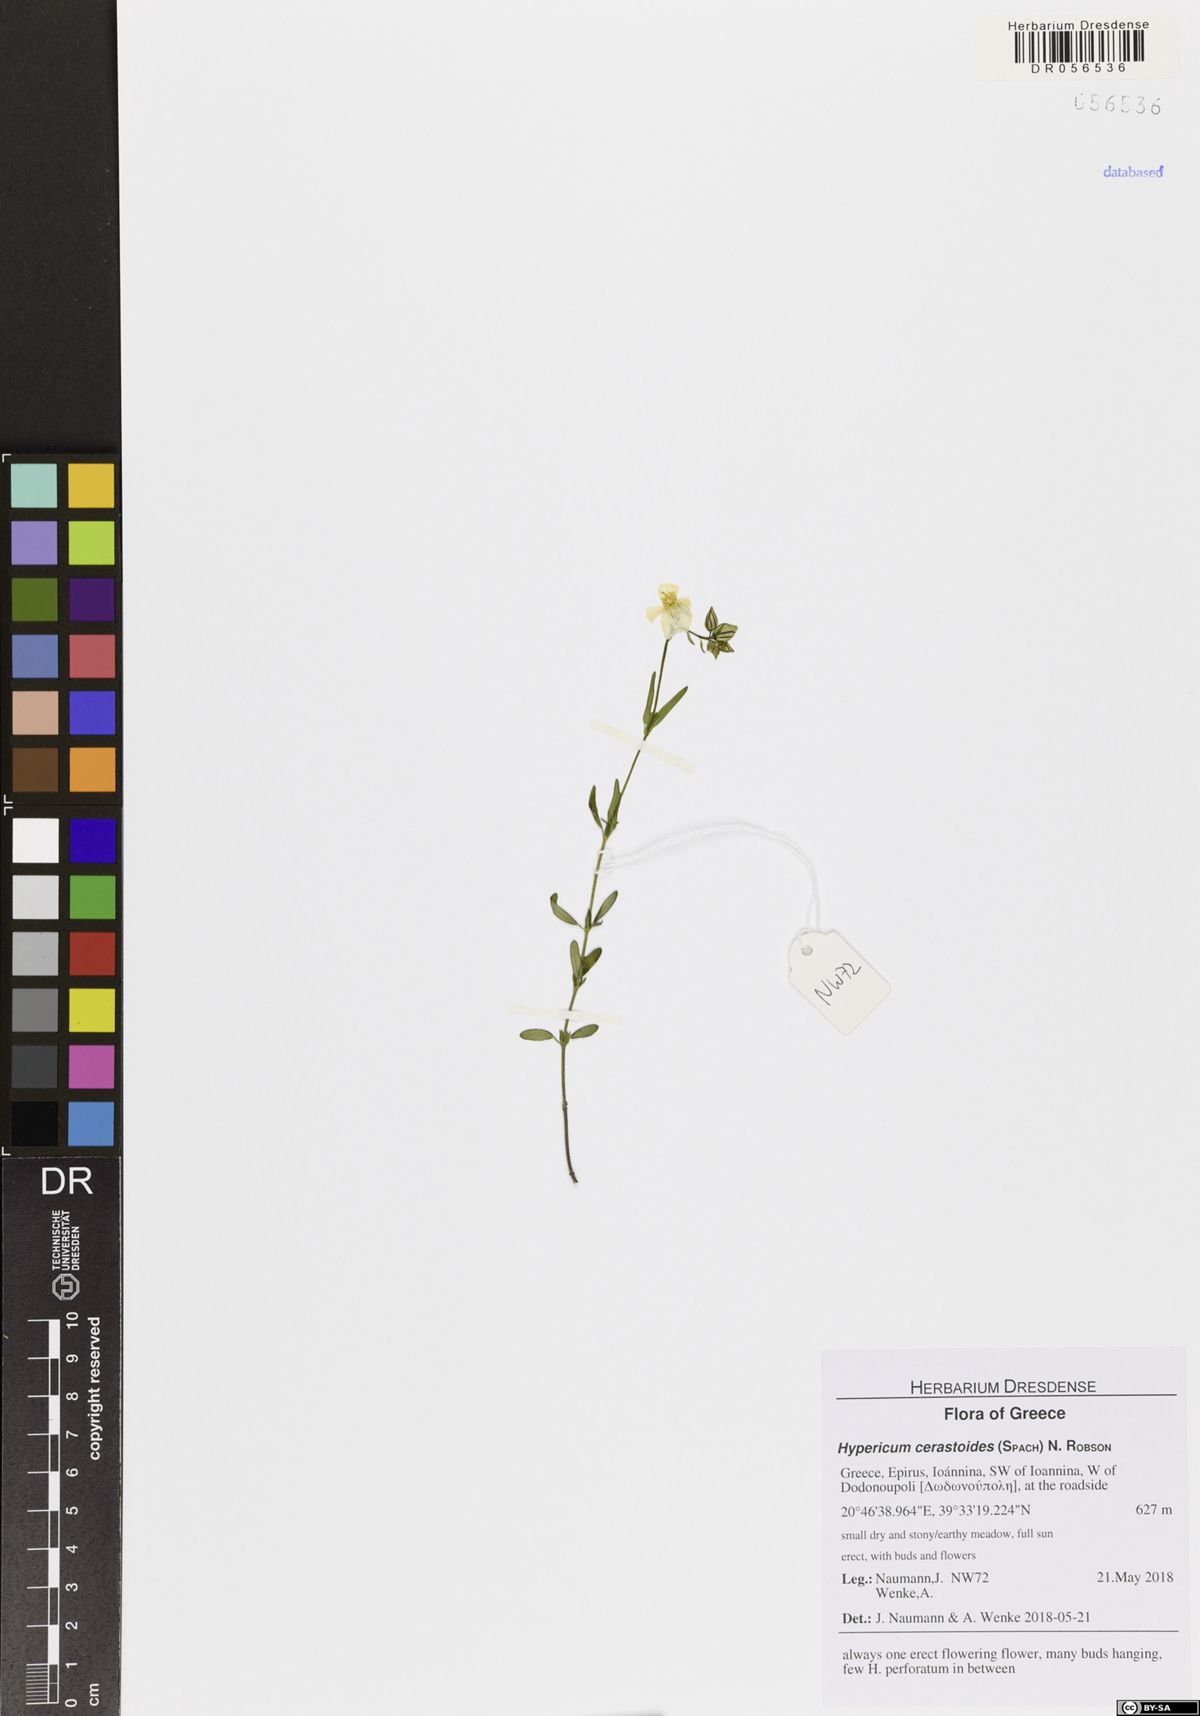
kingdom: Plantae
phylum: Tracheophyta
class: Magnoliopsida
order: Malpighiales
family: Hypericaceae
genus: Hypericum
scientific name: Hypericum cerastoides
